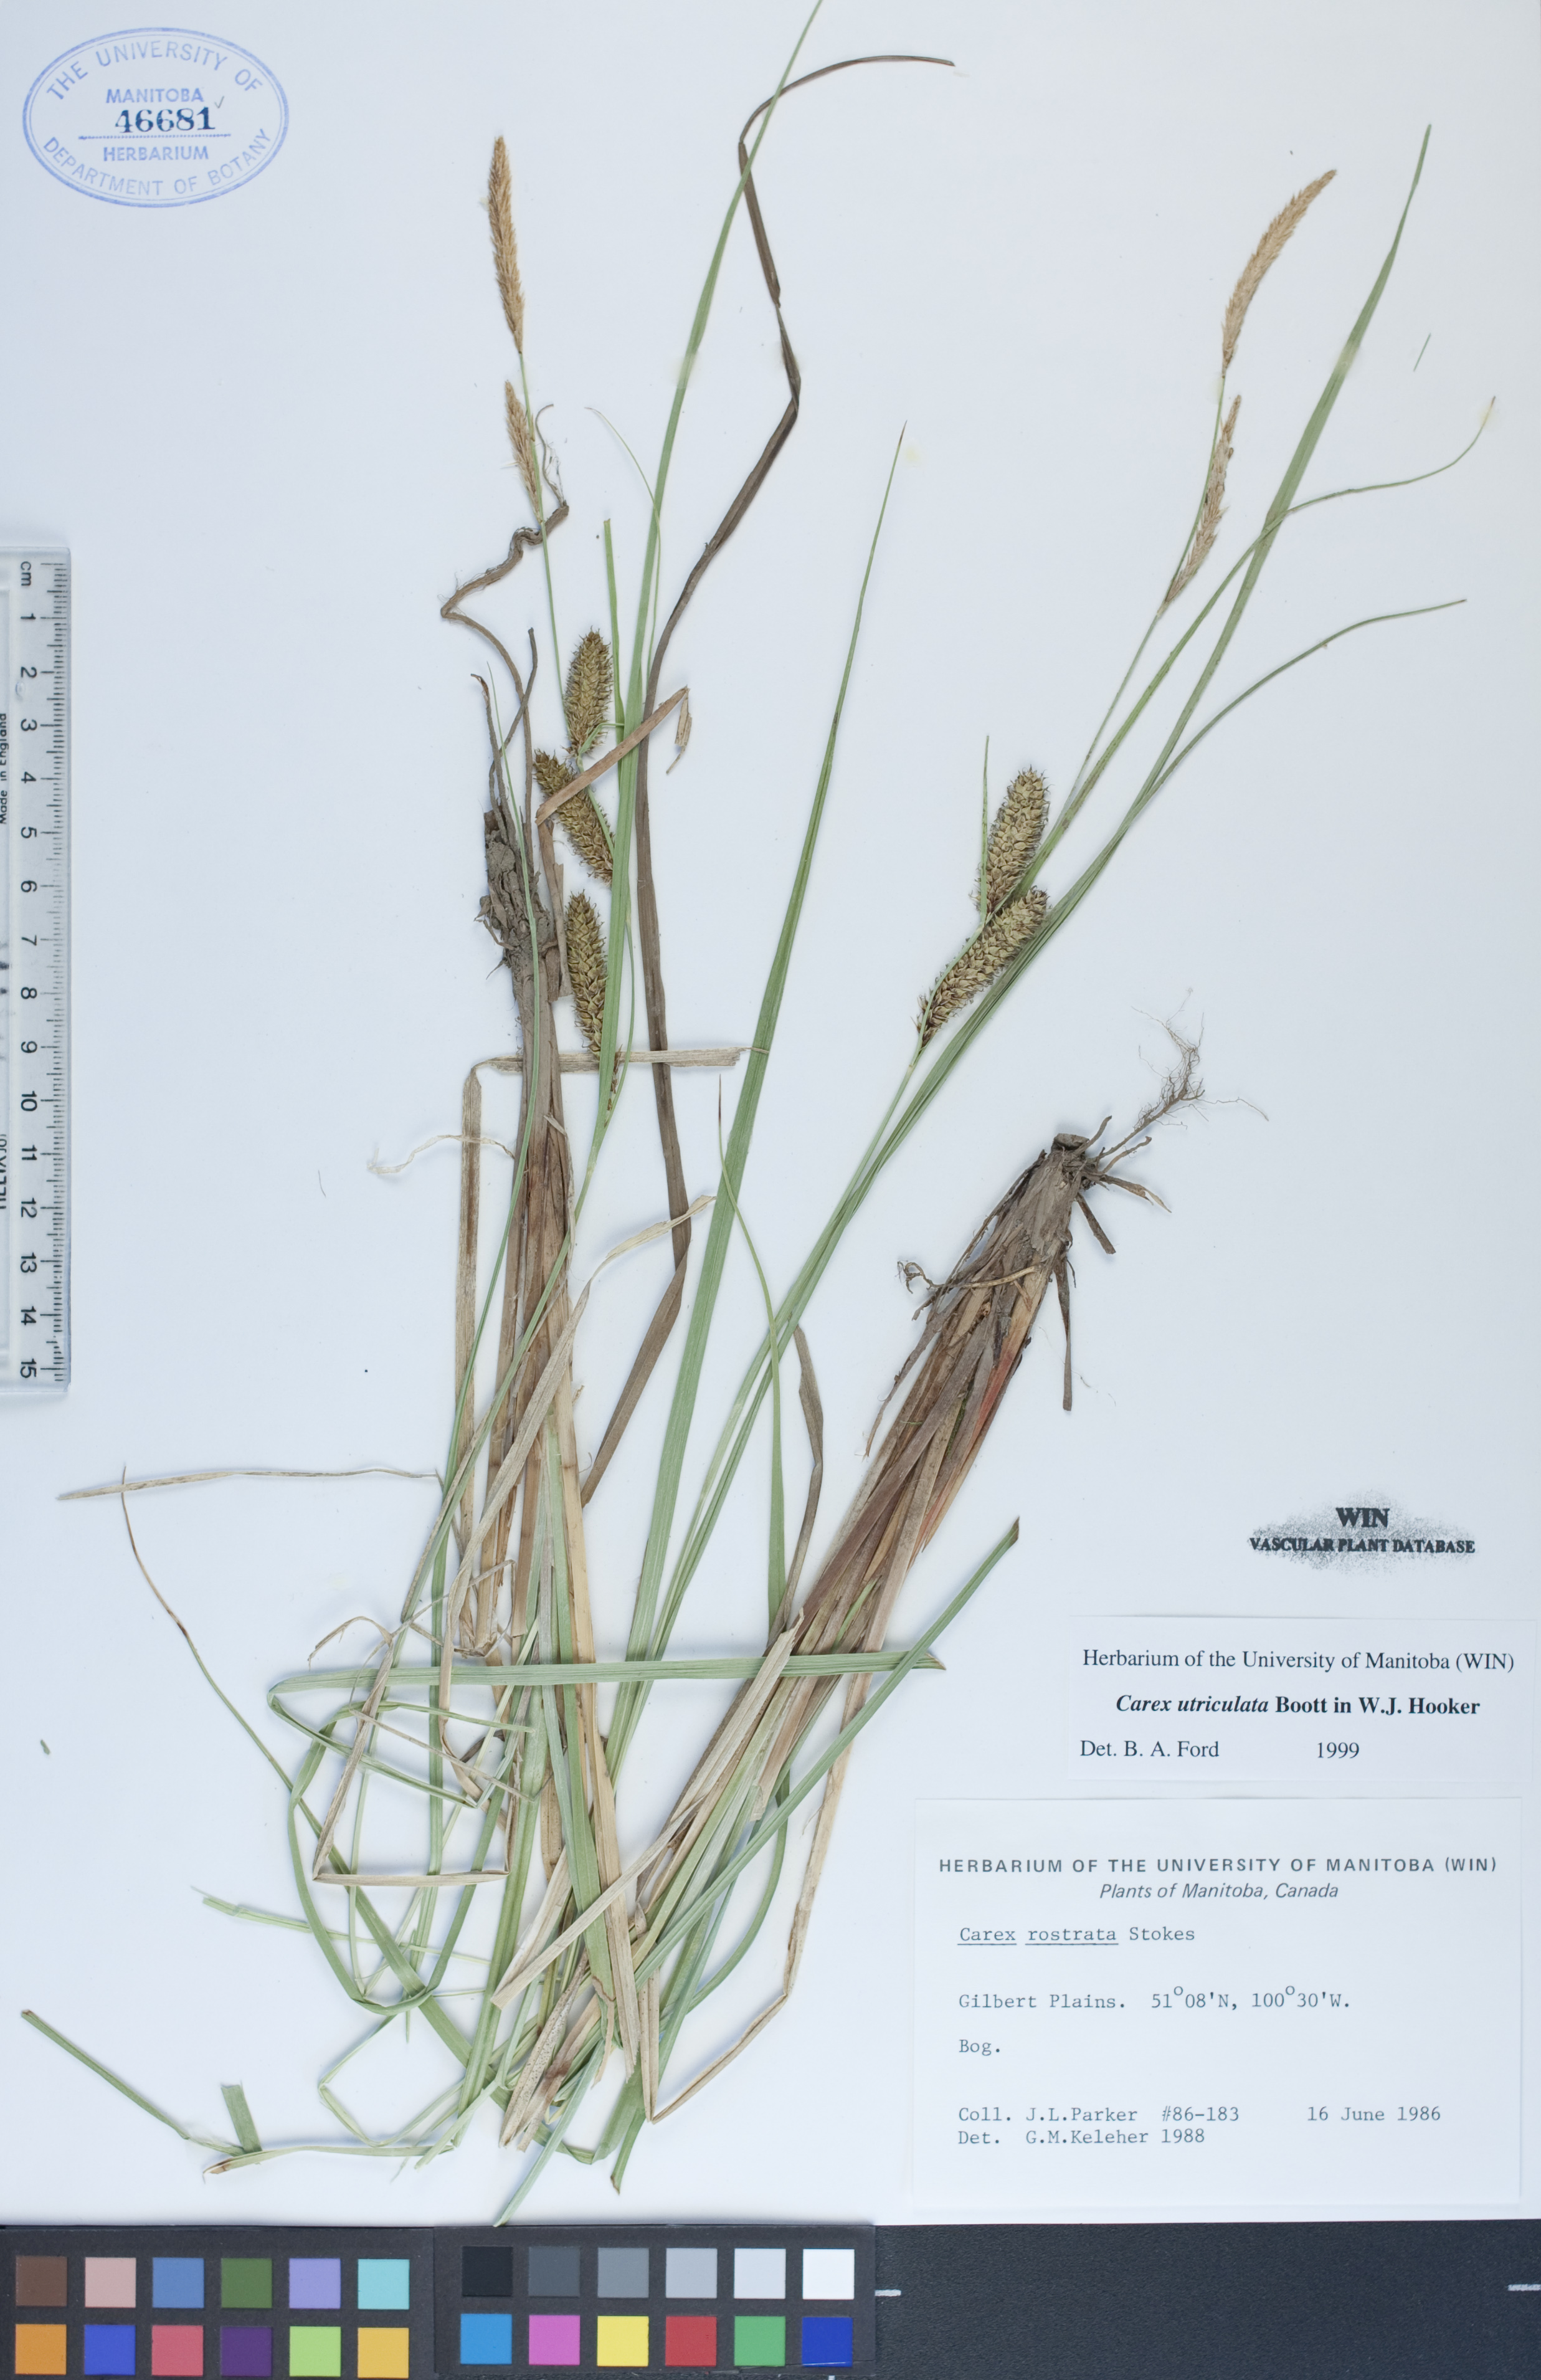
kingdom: Plantae
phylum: Tracheophyta
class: Liliopsida
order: Poales
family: Cyperaceae
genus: Carex
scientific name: Carex utriculata
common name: Beaked sedge
